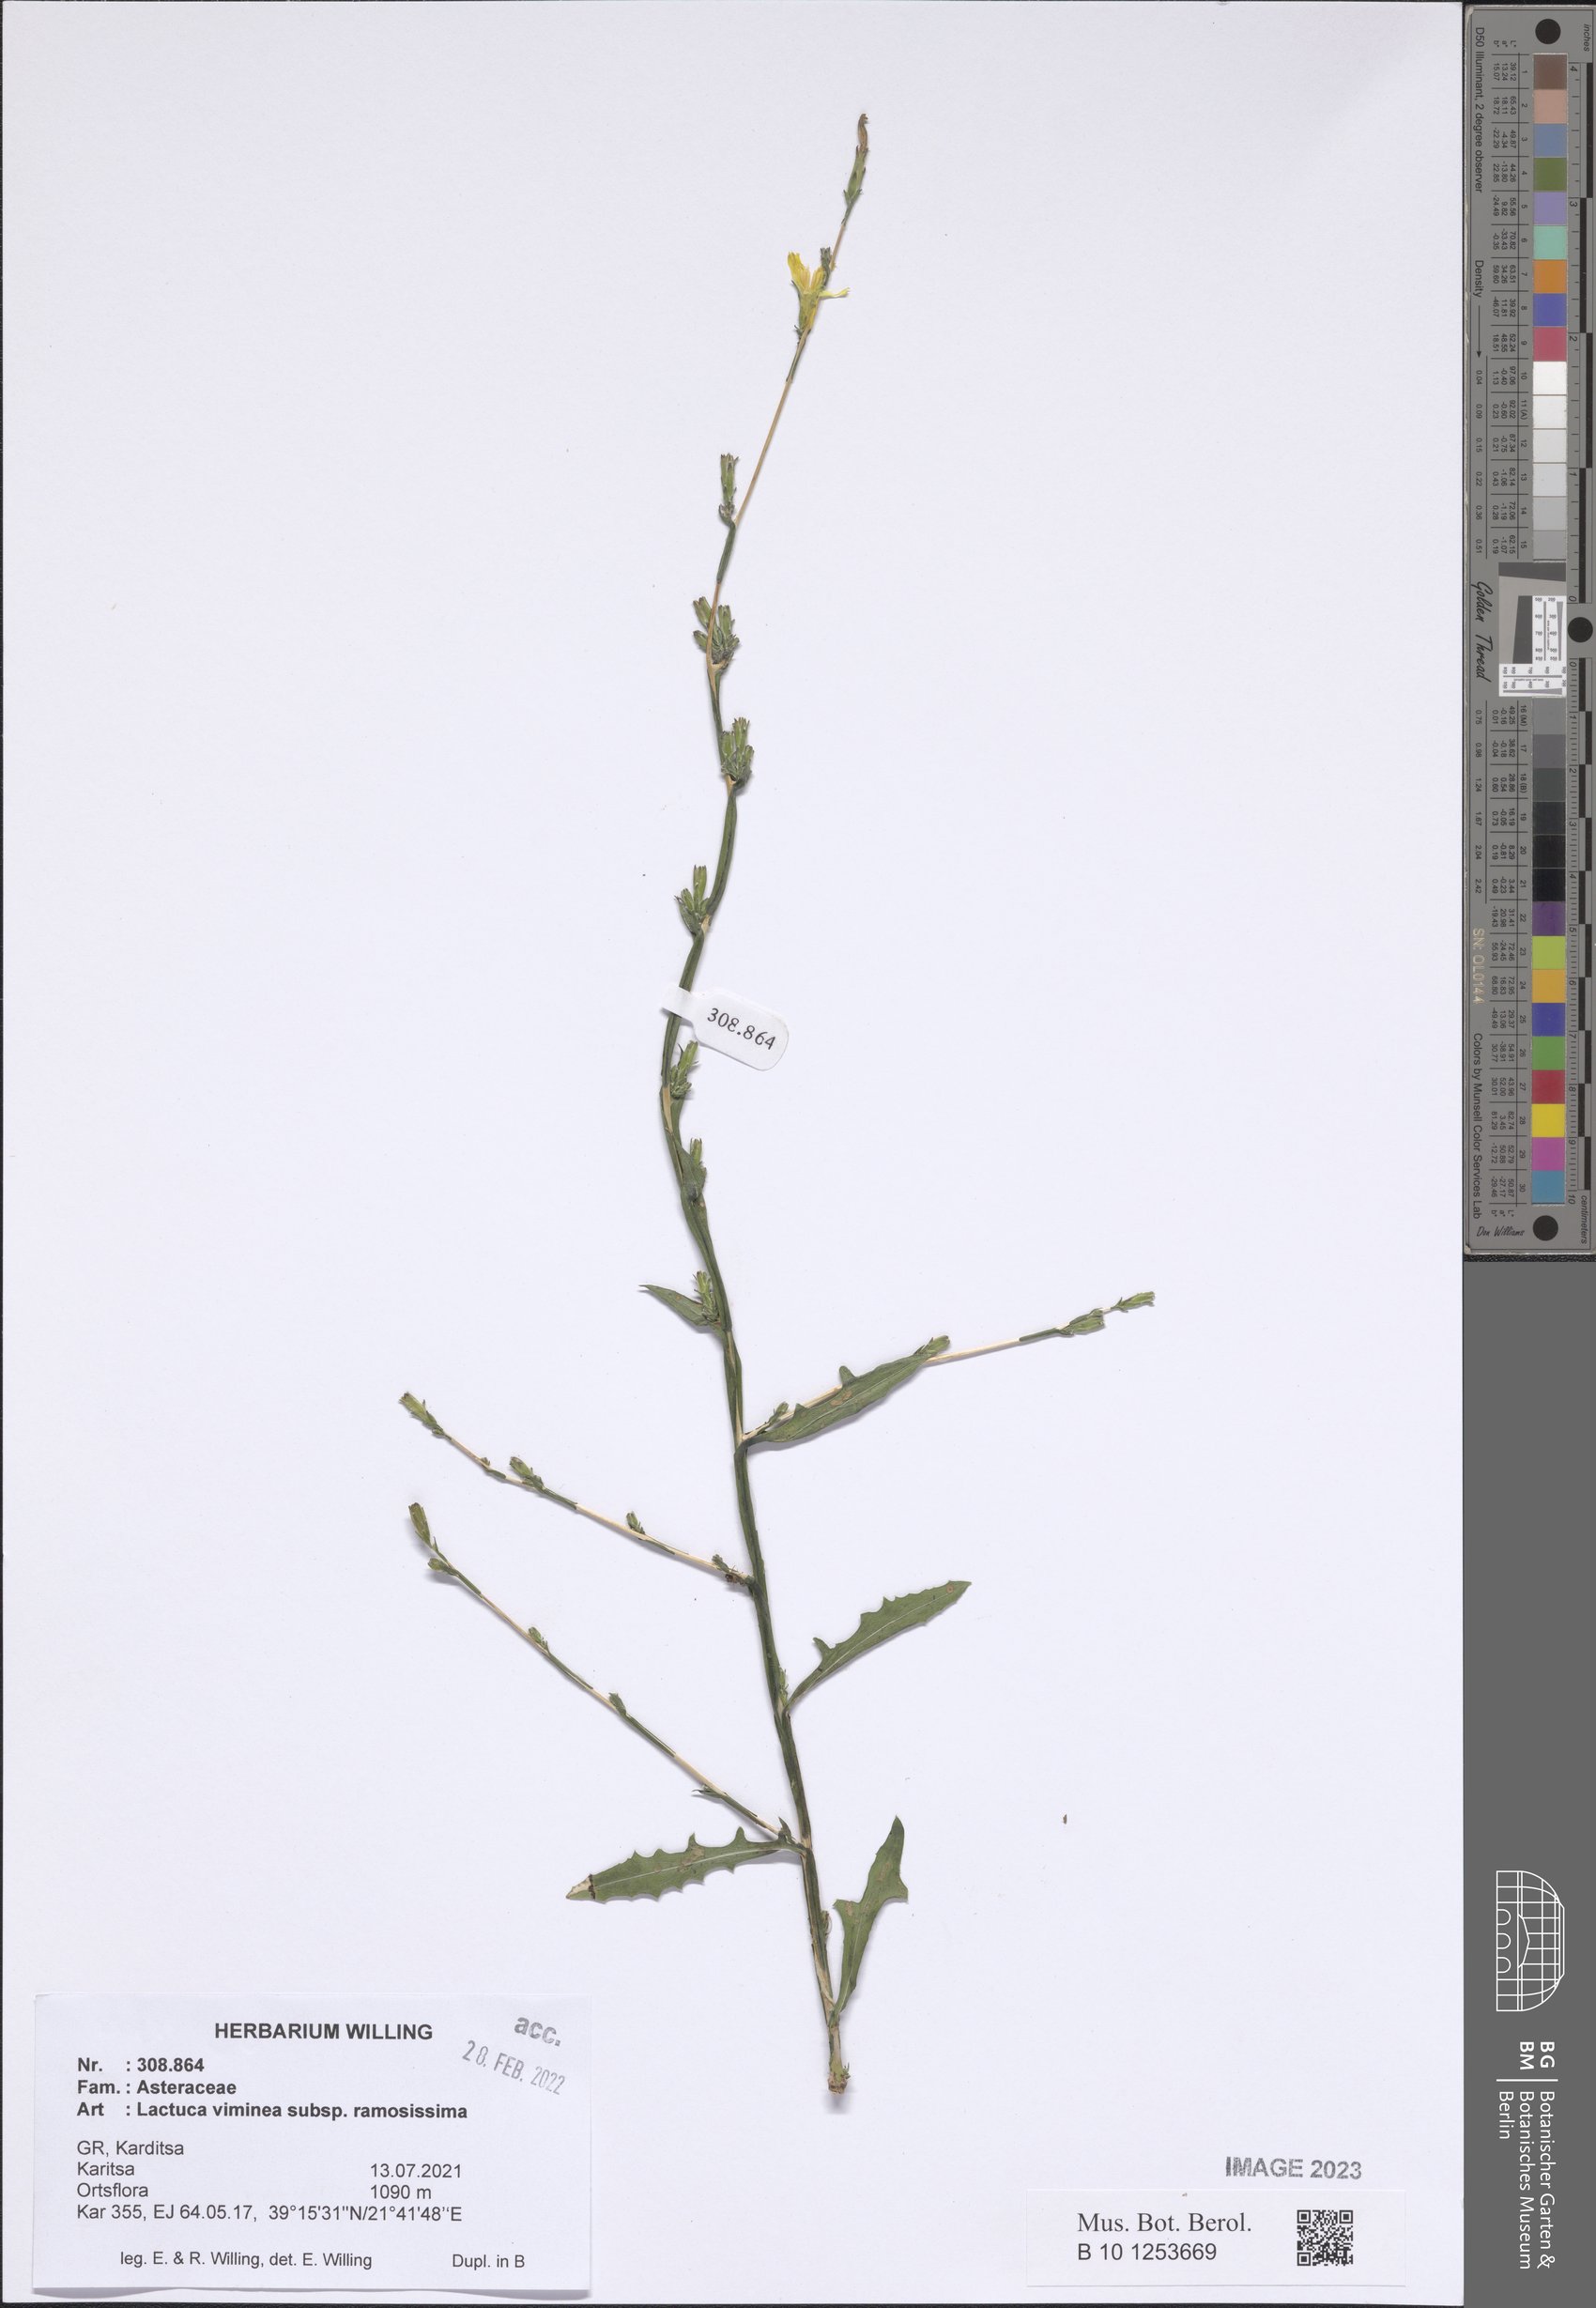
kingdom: Plantae
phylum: Tracheophyta
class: Magnoliopsida
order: Asterales
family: Asteraceae
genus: Lactuca
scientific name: Lactuca viminea
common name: Pliant lettuce
